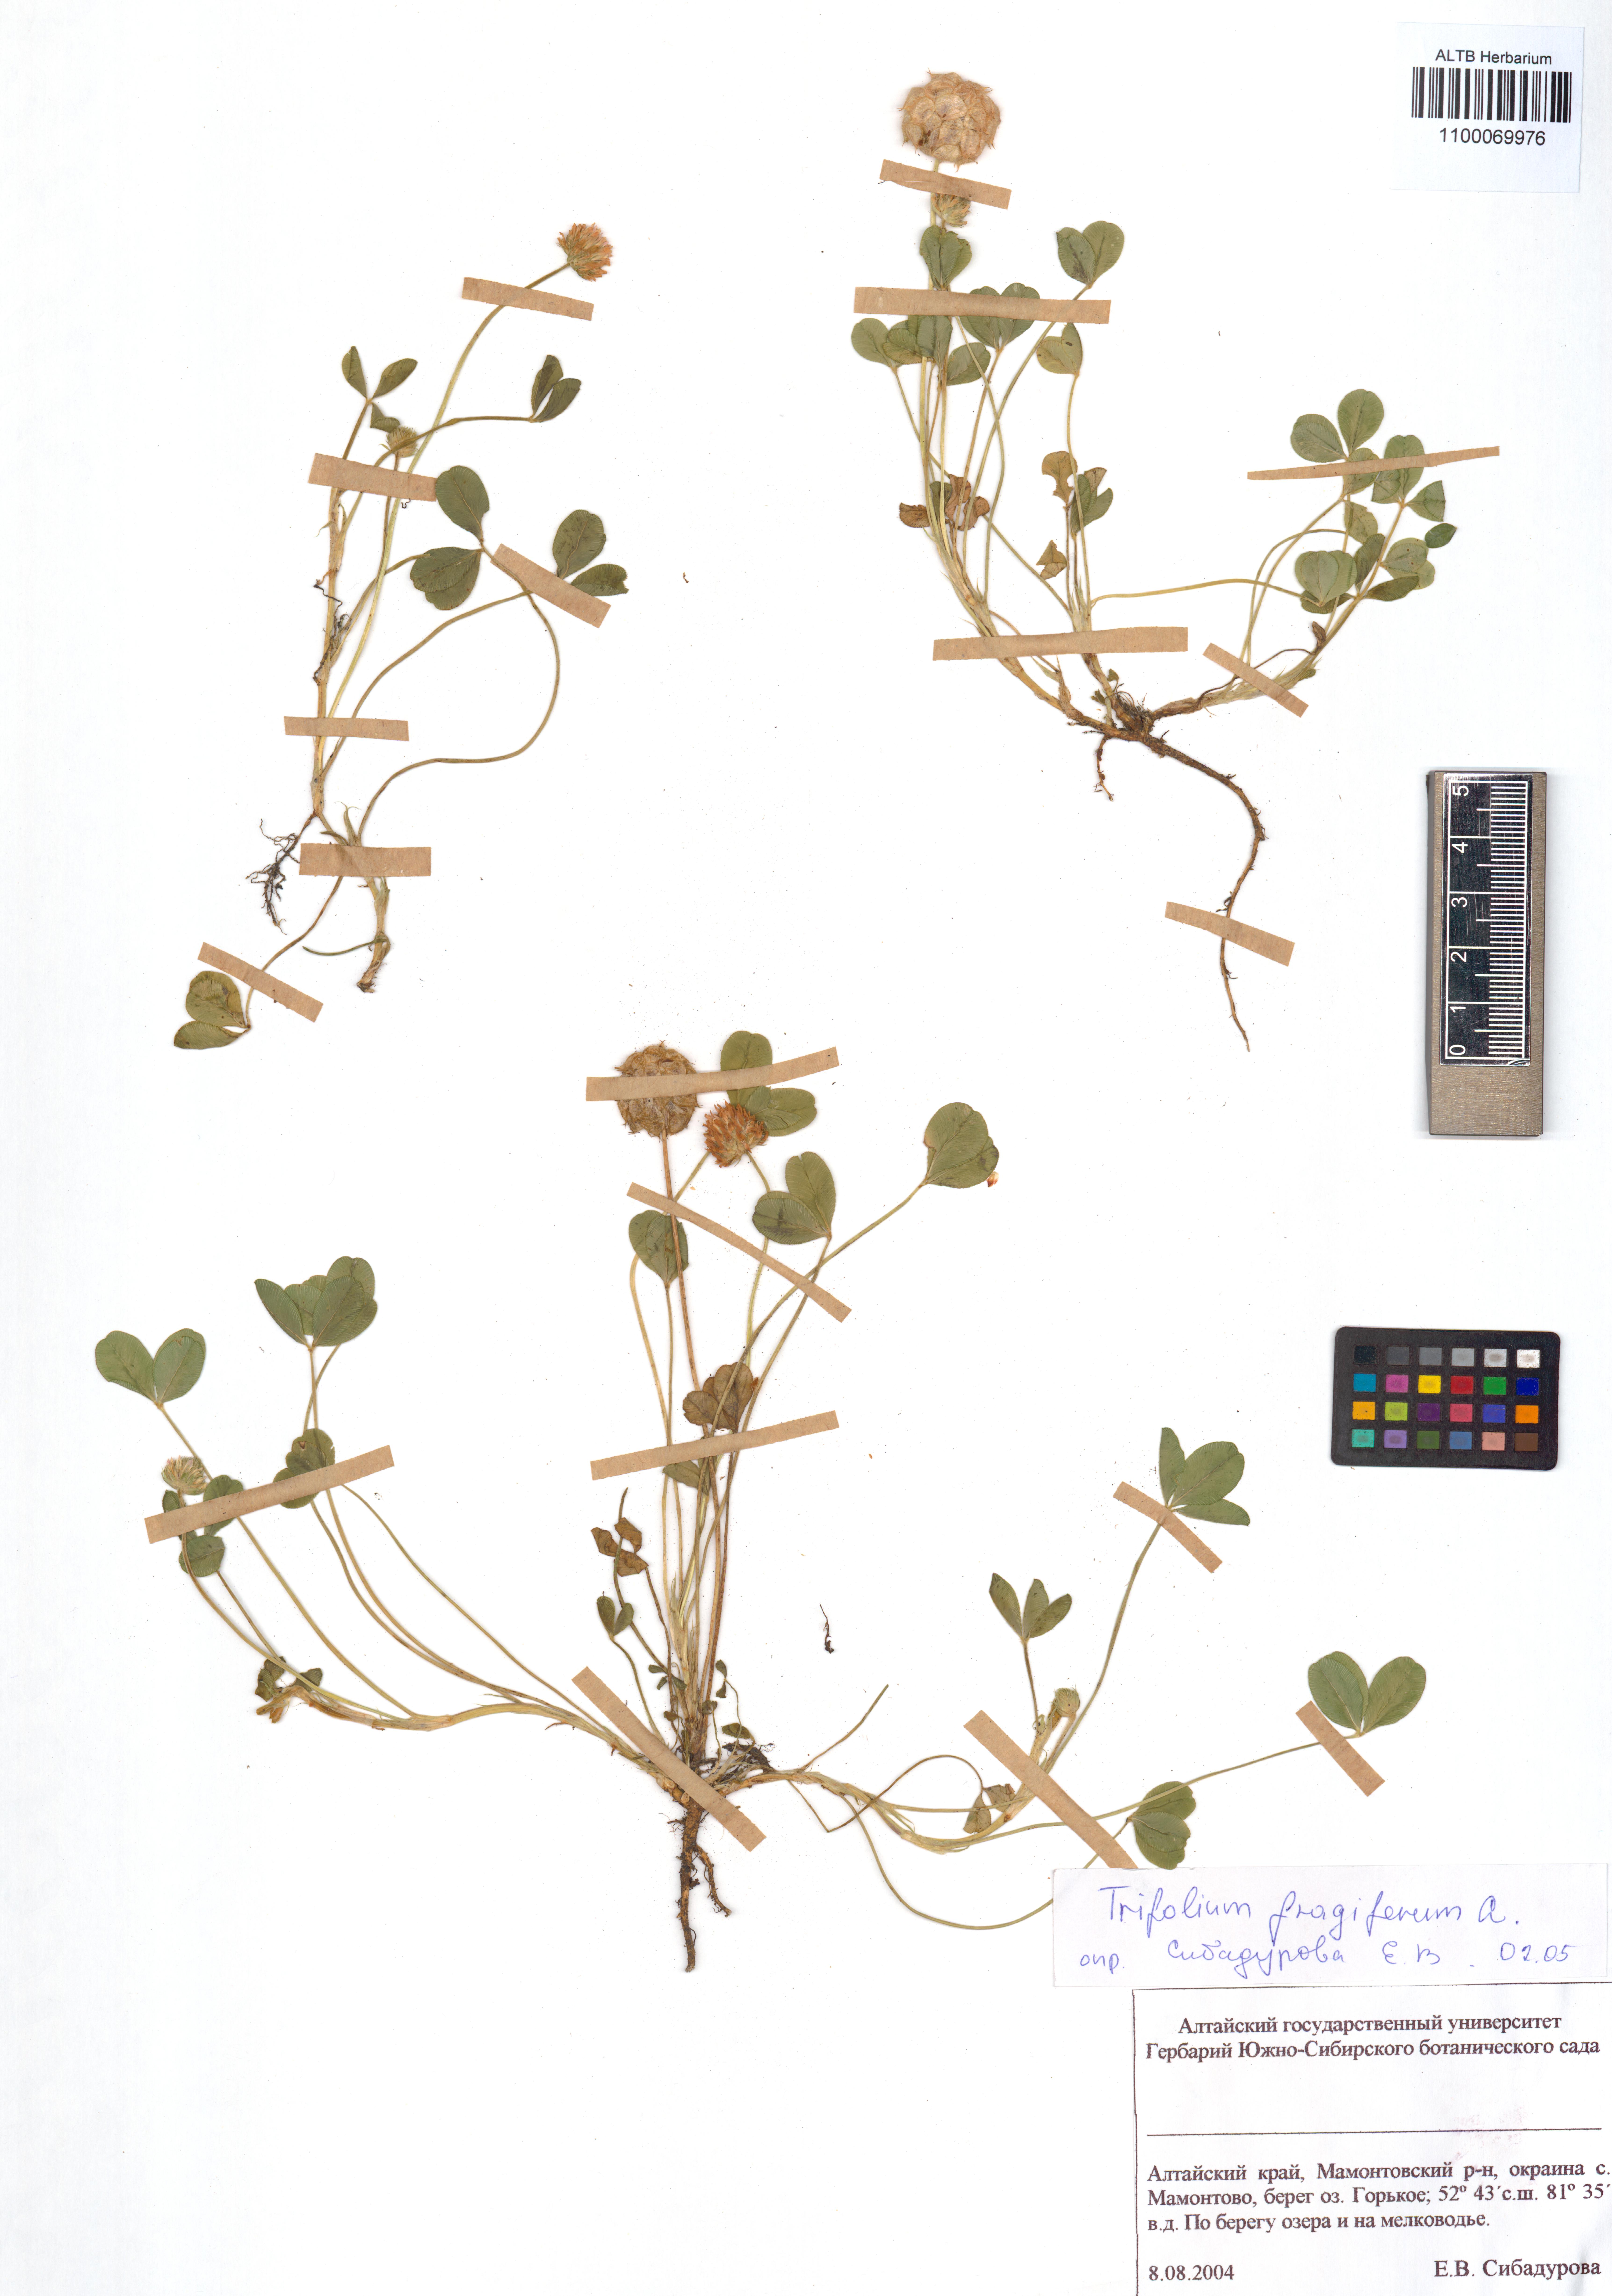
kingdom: Plantae
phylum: Tracheophyta
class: Magnoliopsida
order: Fabales
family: Fabaceae
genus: Trifolium
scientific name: Trifolium fragiferum
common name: Strawberry clover
